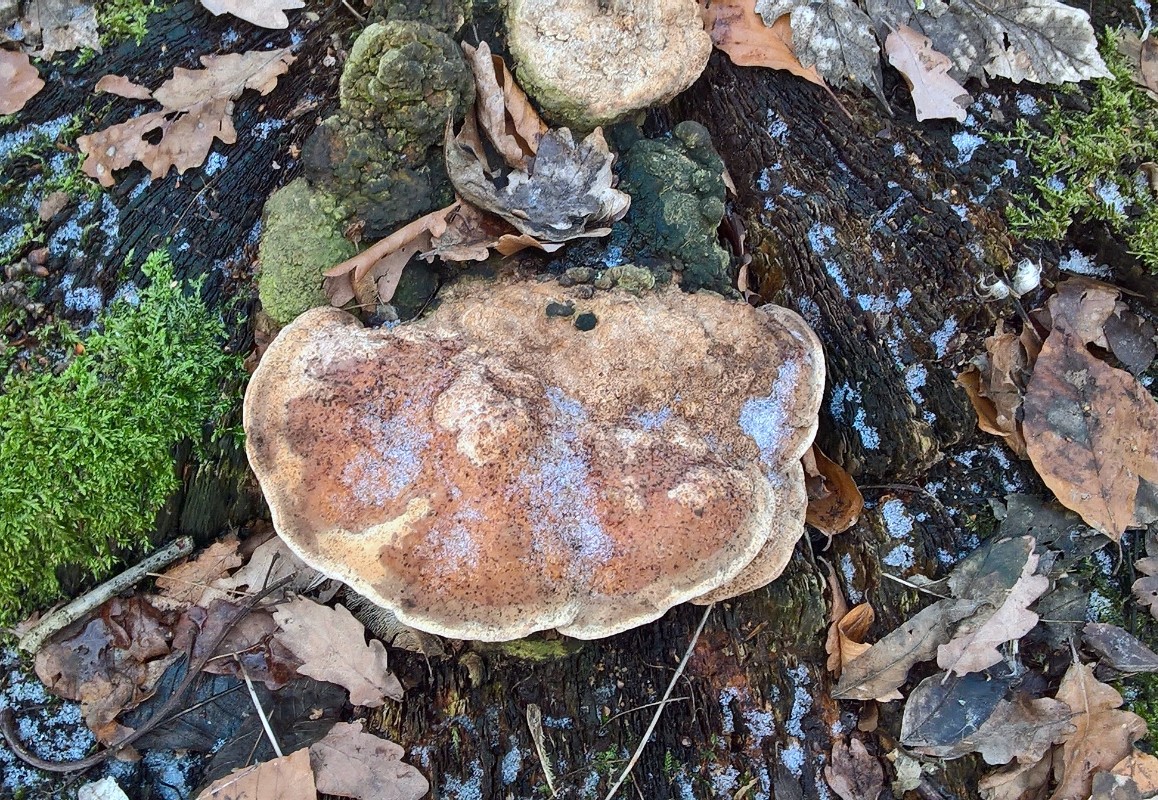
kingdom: Fungi
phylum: Basidiomycota
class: Agaricomycetes
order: Polyporales
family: Fomitopsidaceae
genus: Daedalea
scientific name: Daedalea quercina
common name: ege-labyrintsvamp
